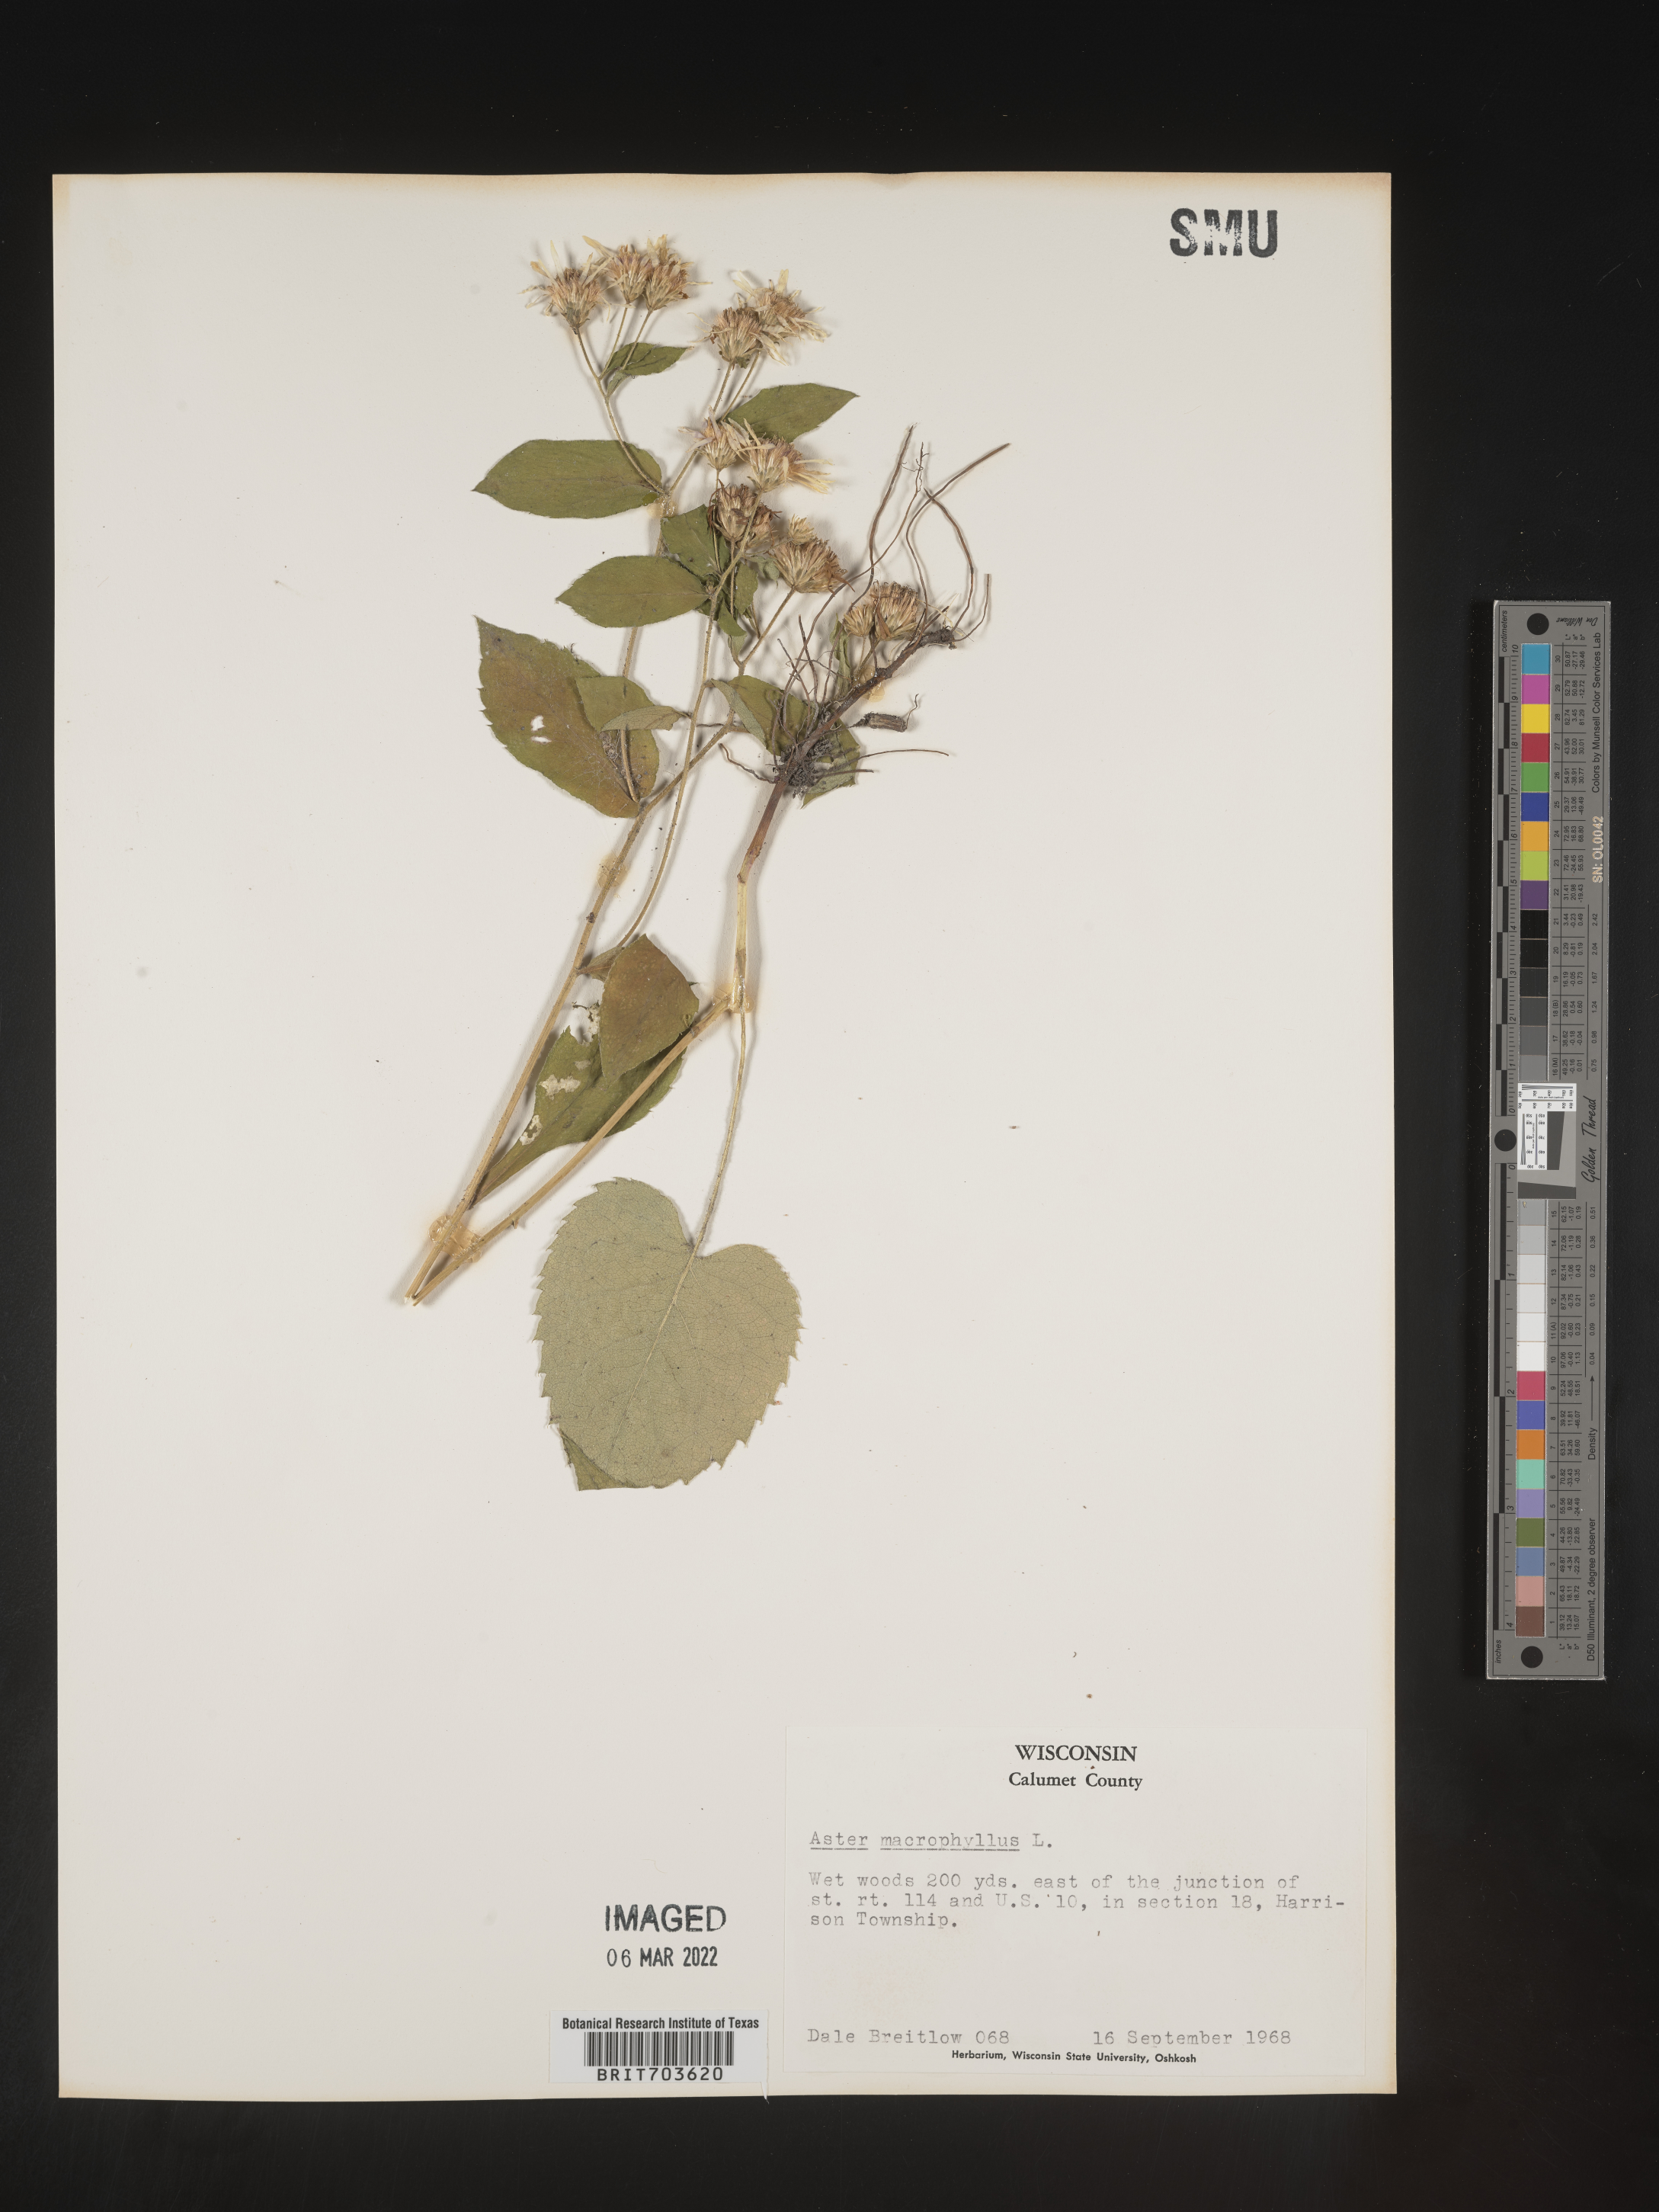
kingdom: Plantae
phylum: Tracheophyta
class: Magnoliopsida
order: Asterales
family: Asteraceae
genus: Eurybia
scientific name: Eurybia macrophylla
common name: Big-leaved aster
